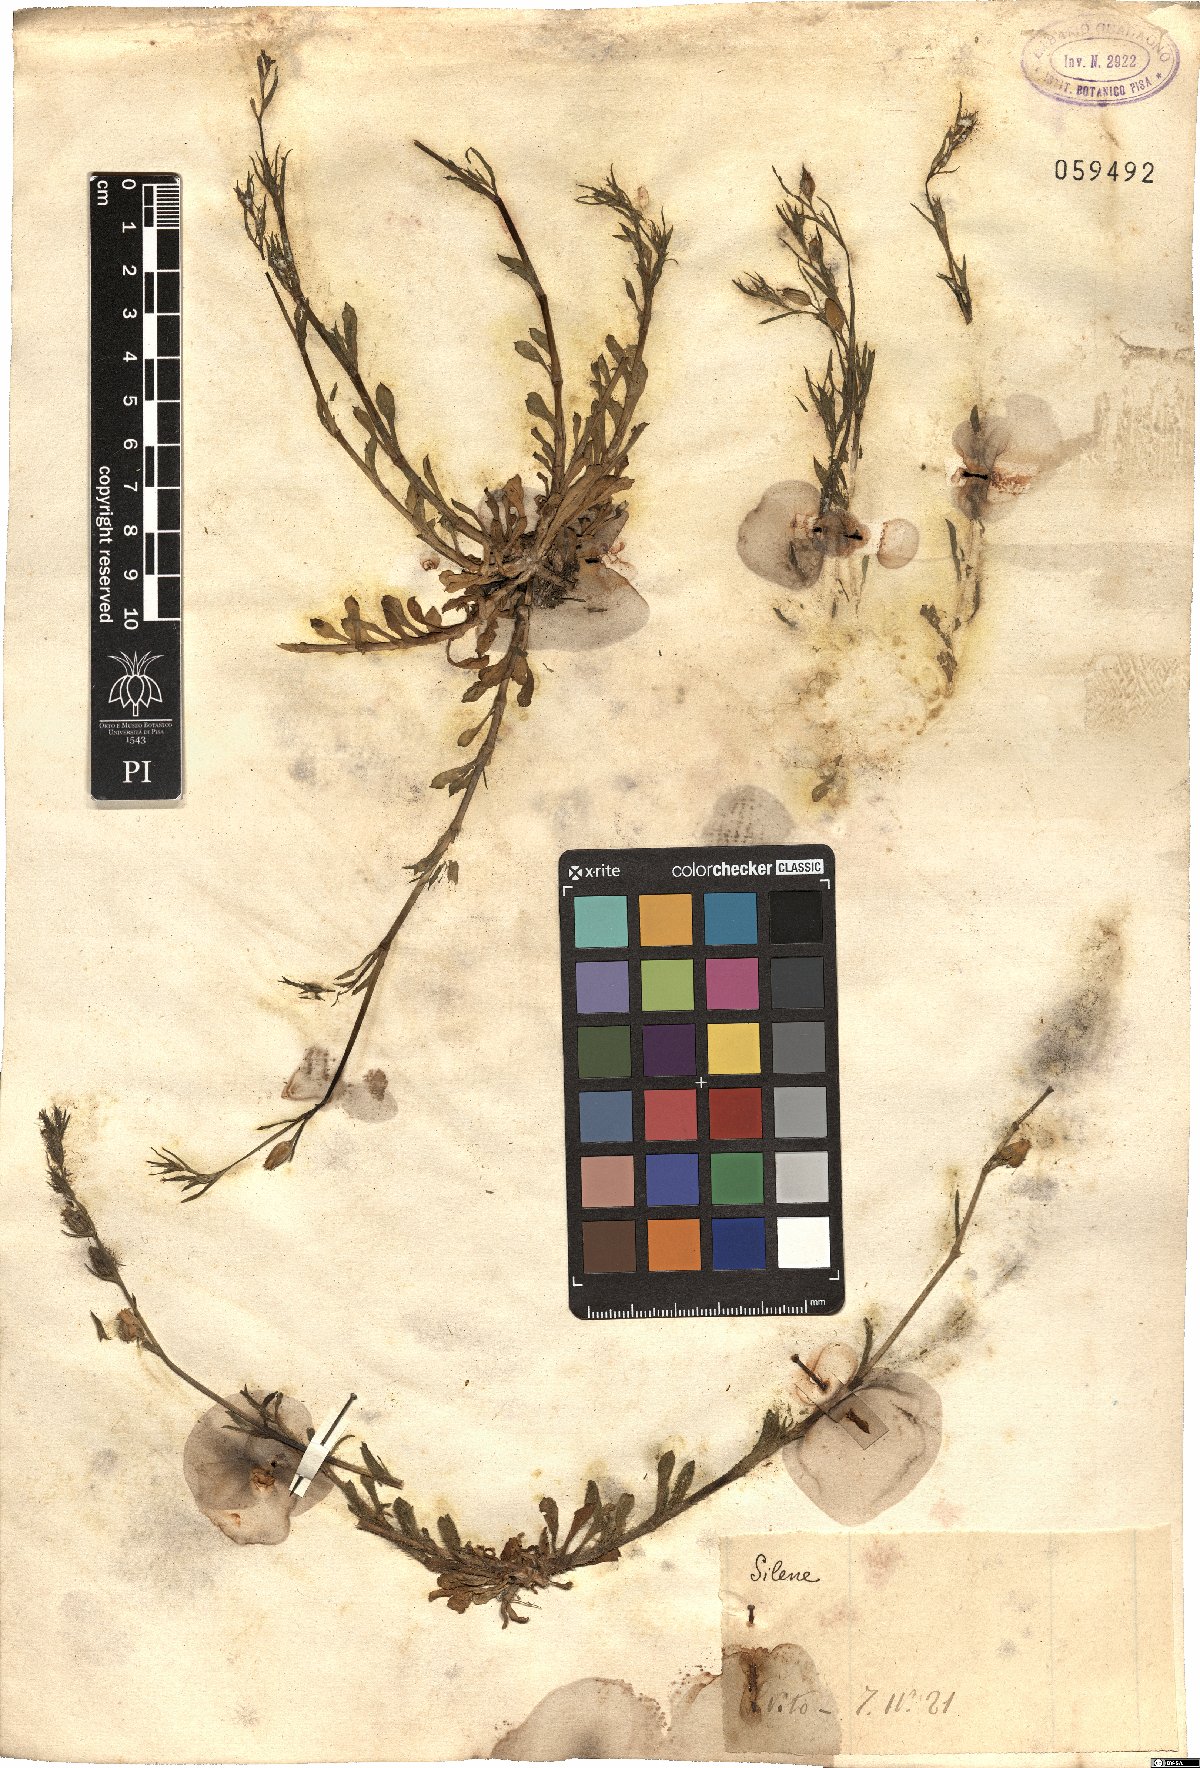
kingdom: Plantae
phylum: Tracheophyta
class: Magnoliopsida
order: Caryophyllales
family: Caryophyllaceae
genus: Silene
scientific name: Silene
